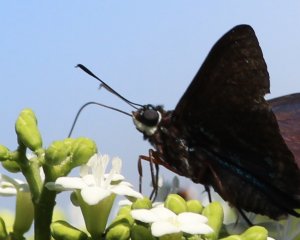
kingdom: Animalia
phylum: Arthropoda
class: Insecta
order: Lepidoptera
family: Hesperiidae
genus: Phocides
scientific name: Phocides pigmalion
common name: Mangrove Skipper
